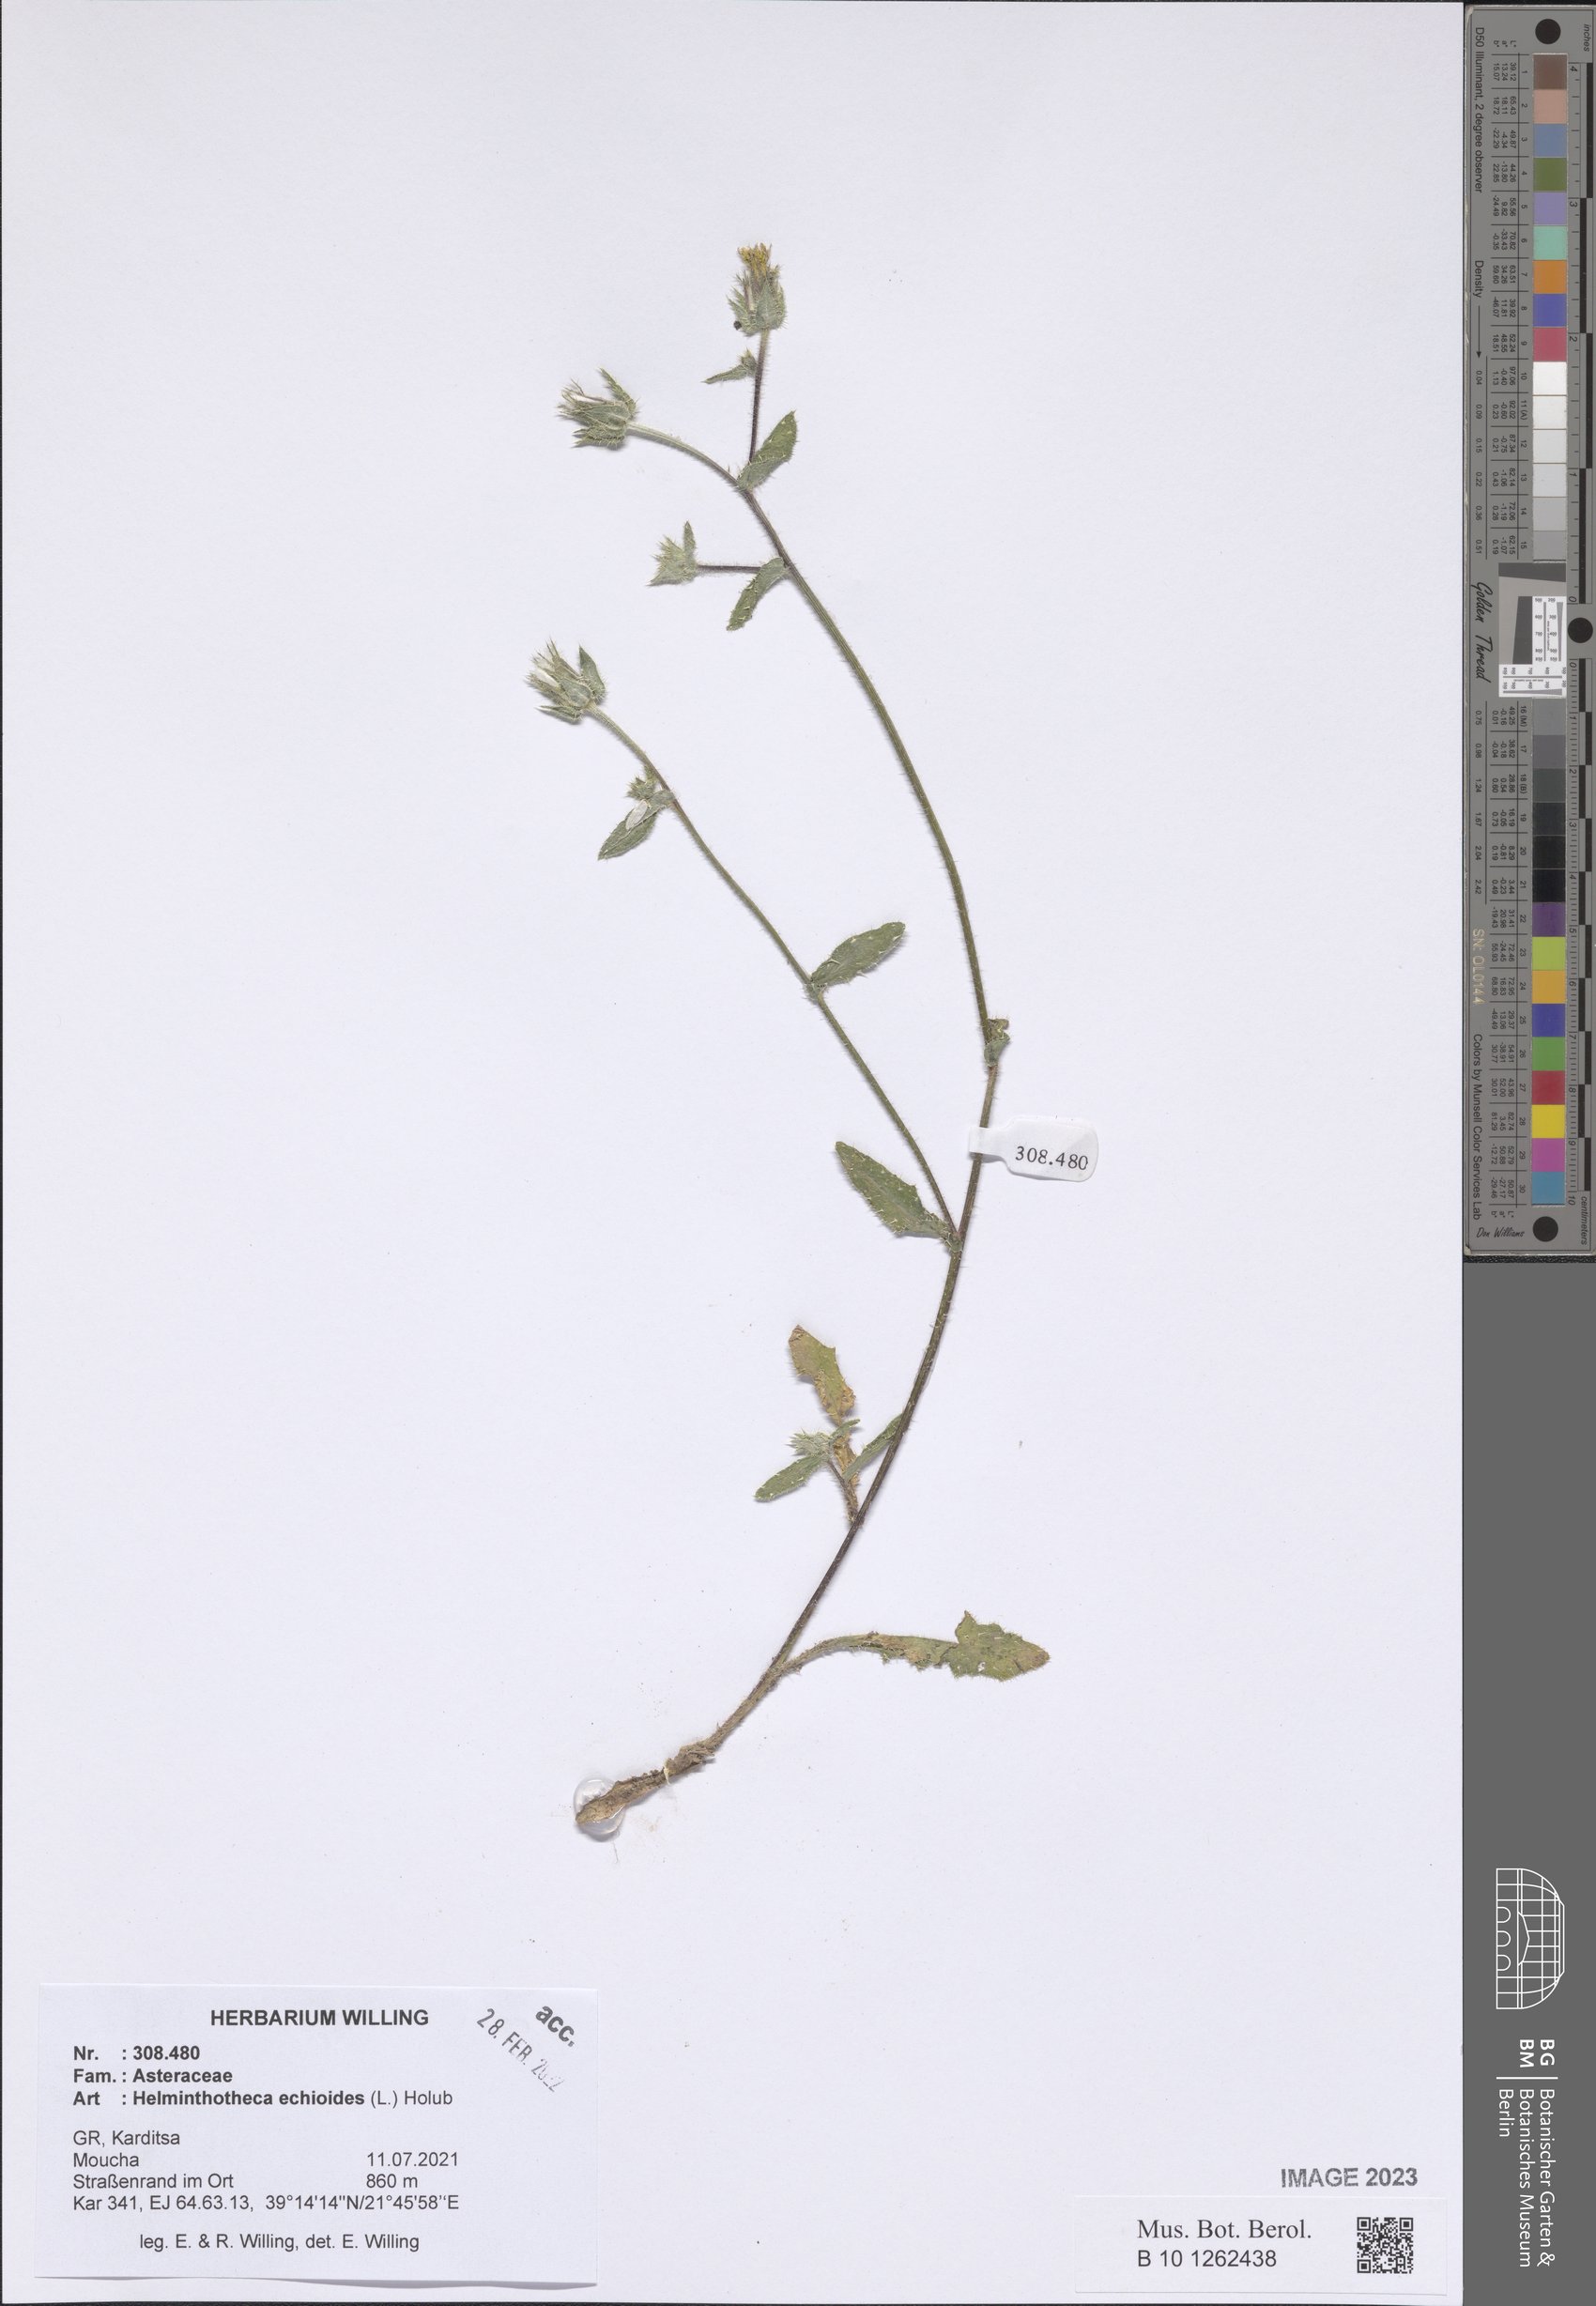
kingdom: Plantae
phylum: Tracheophyta
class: Magnoliopsida
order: Asterales
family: Asteraceae
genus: Helminthotheca
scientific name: Helminthotheca echioides
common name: Ox-tongue
